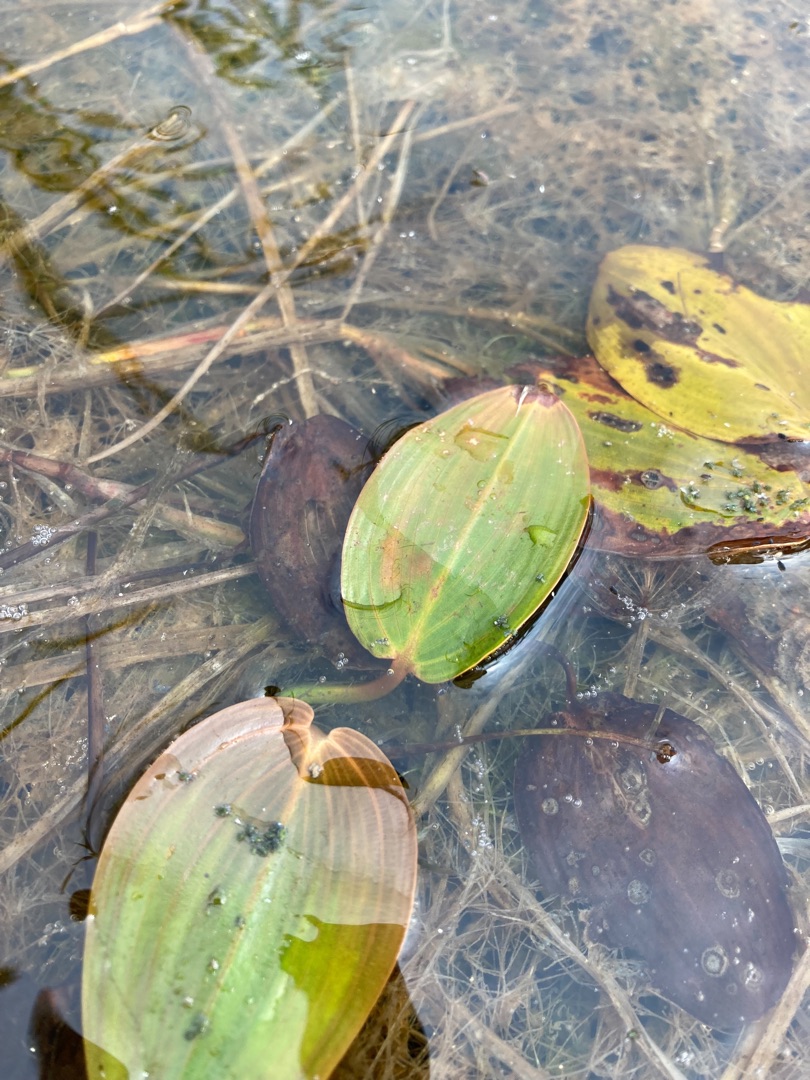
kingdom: Plantae
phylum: Tracheophyta
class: Liliopsida
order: Alismatales
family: Potamogetonaceae
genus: Potamogeton
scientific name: Potamogeton natans
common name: Svømmende vandaks
